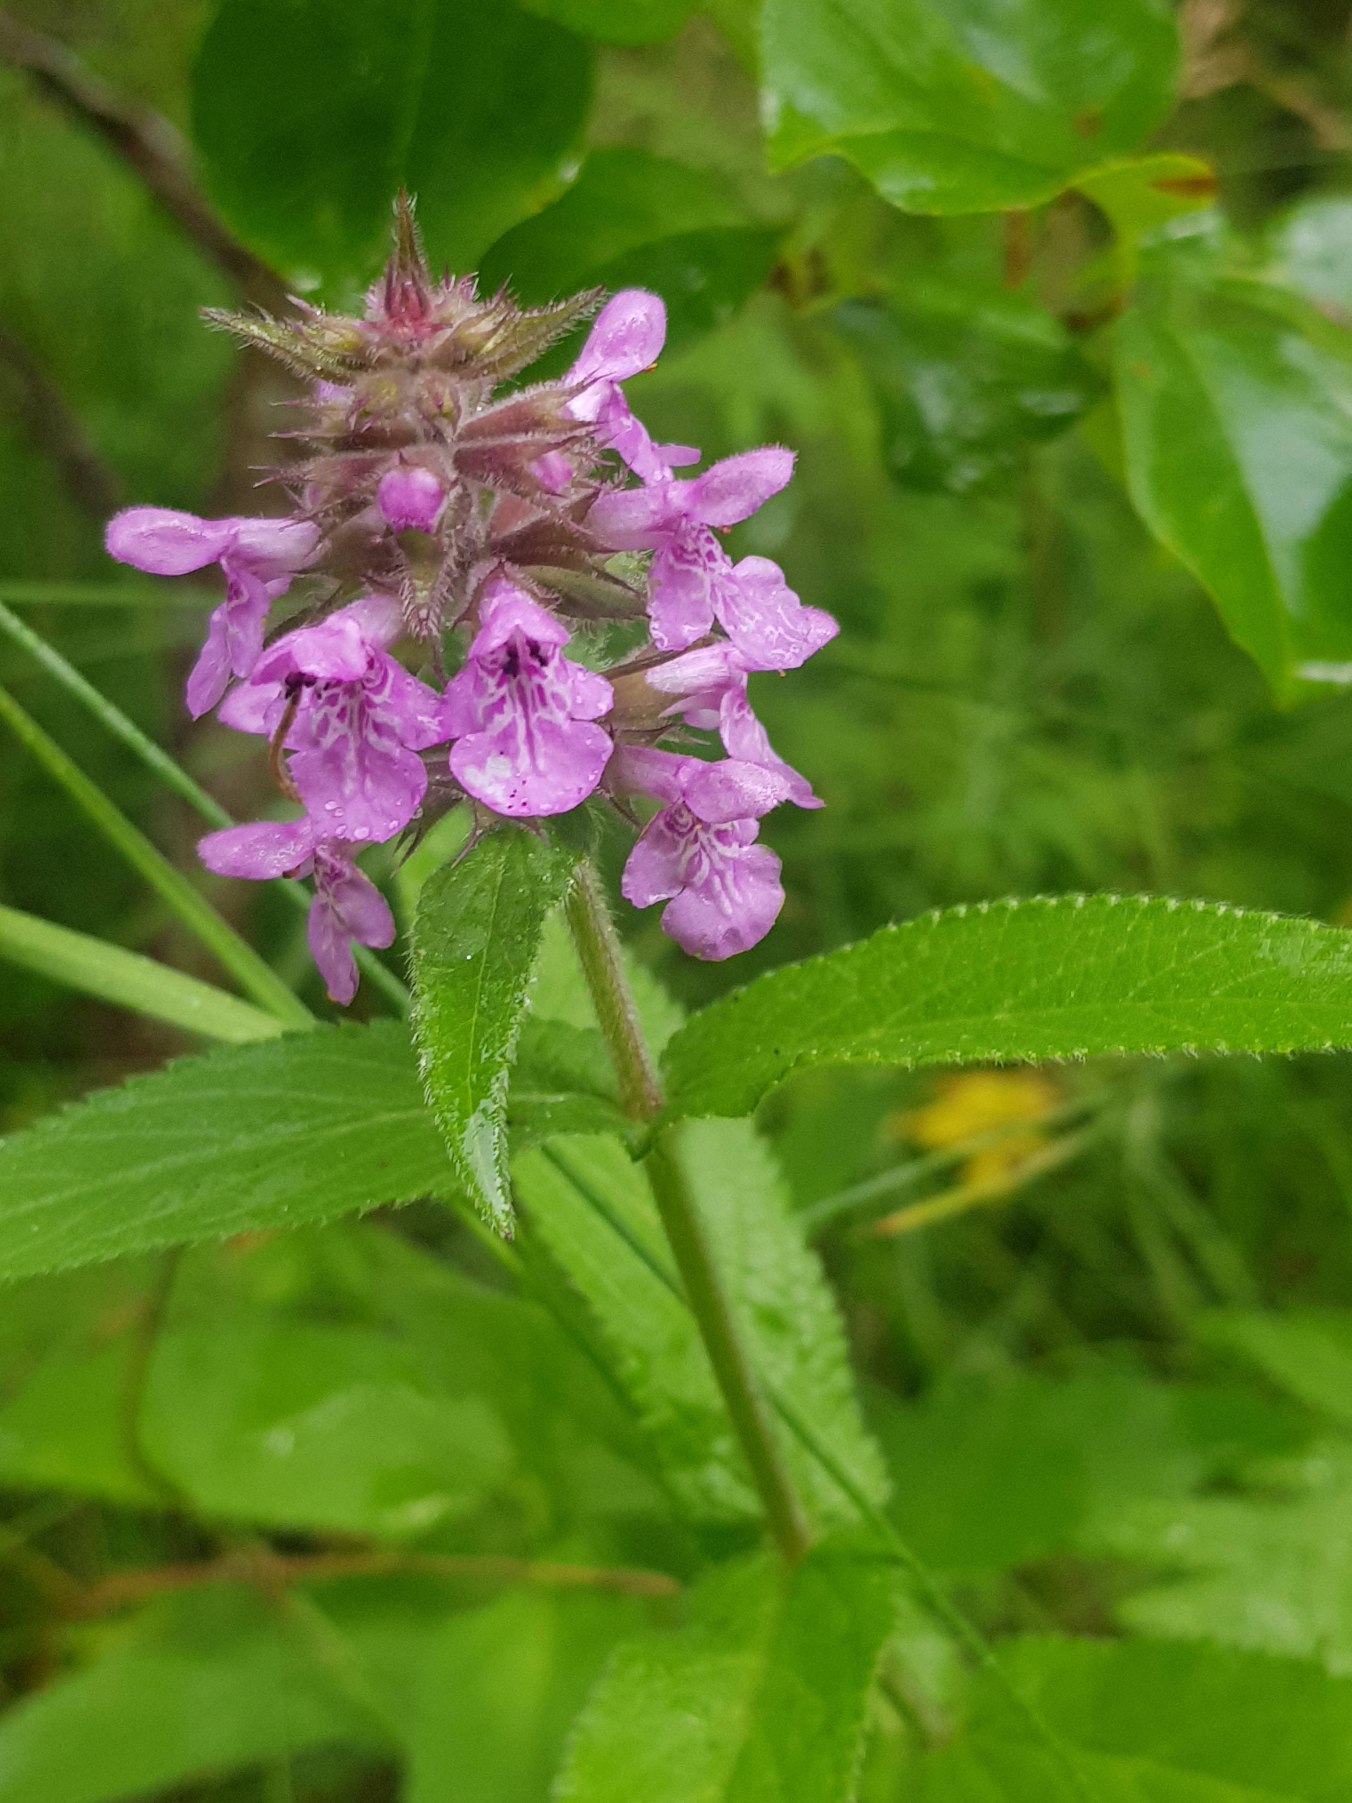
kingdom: Plantae
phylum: Tracheophyta
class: Magnoliopsida
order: Lamiales
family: Lamiaceae
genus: Stachys
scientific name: Stachys palustris
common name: Kær-galtetand
